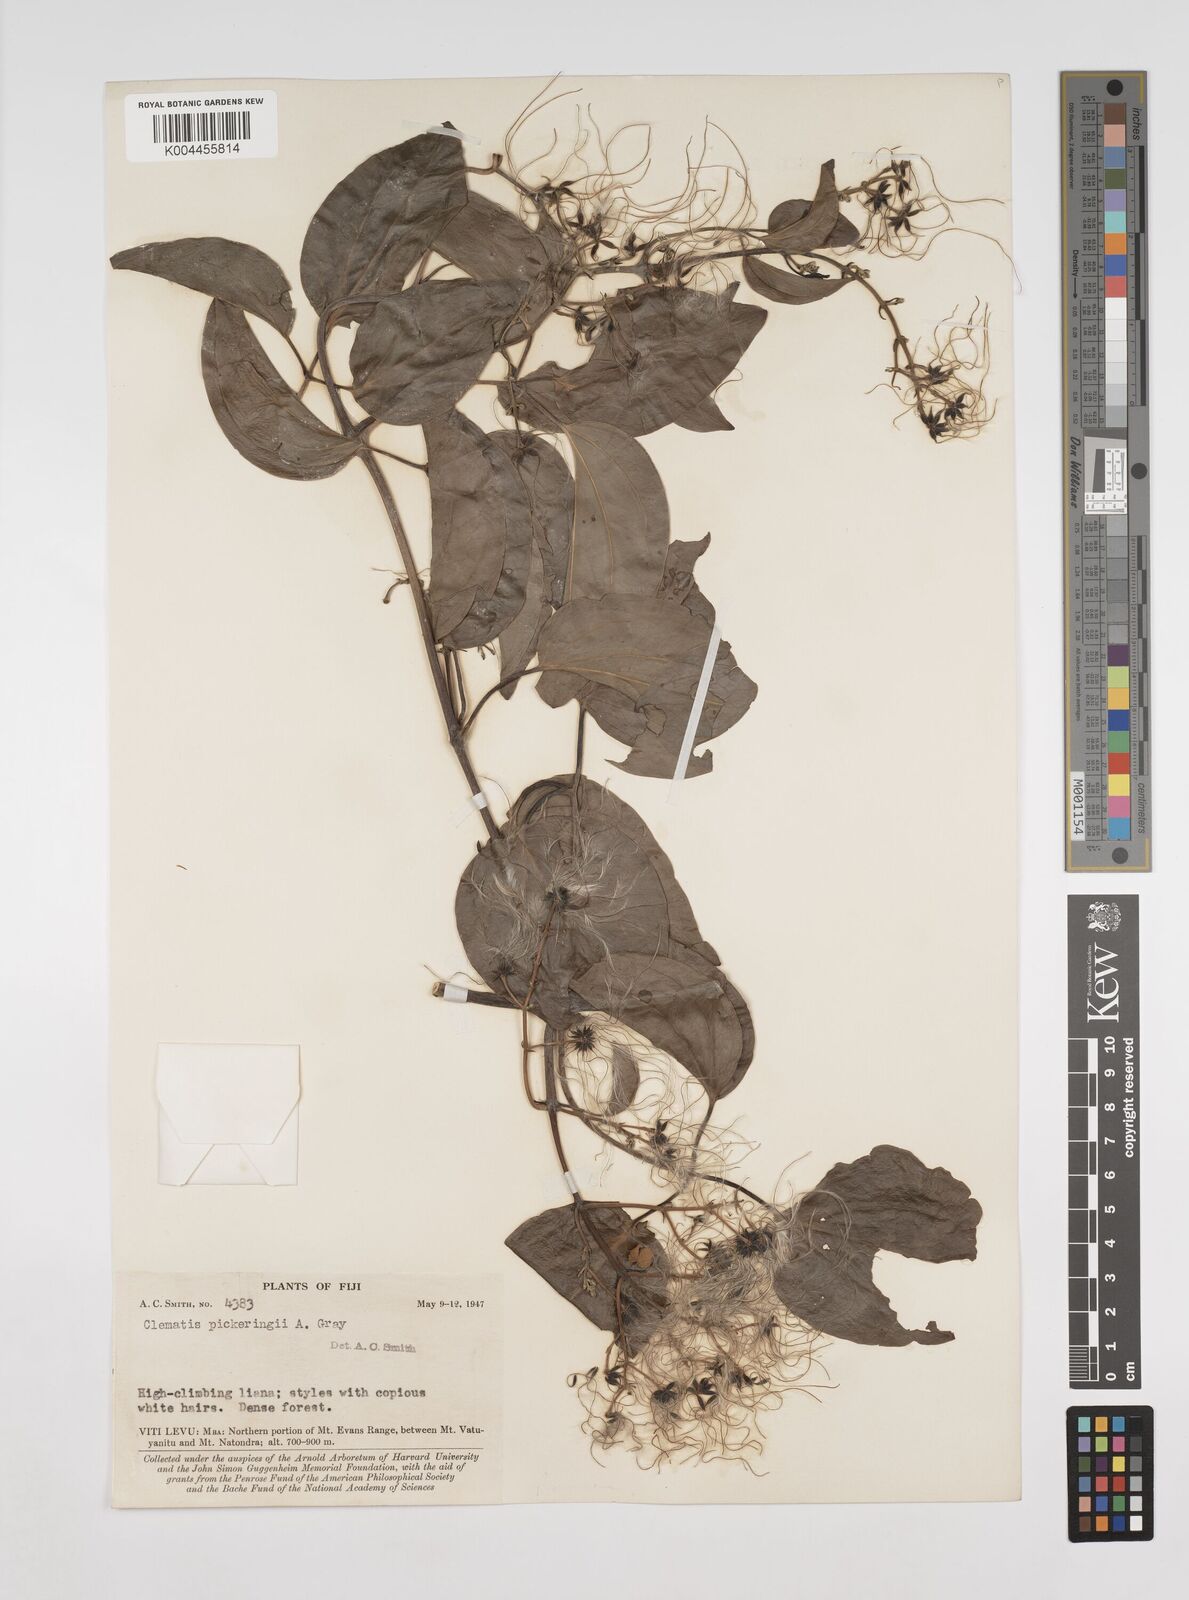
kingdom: Plantae
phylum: Tracheophyta
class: Magnoliopsida
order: Ranunculales
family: Ranunculaceae
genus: Clematis
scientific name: Clematis pickeringii
